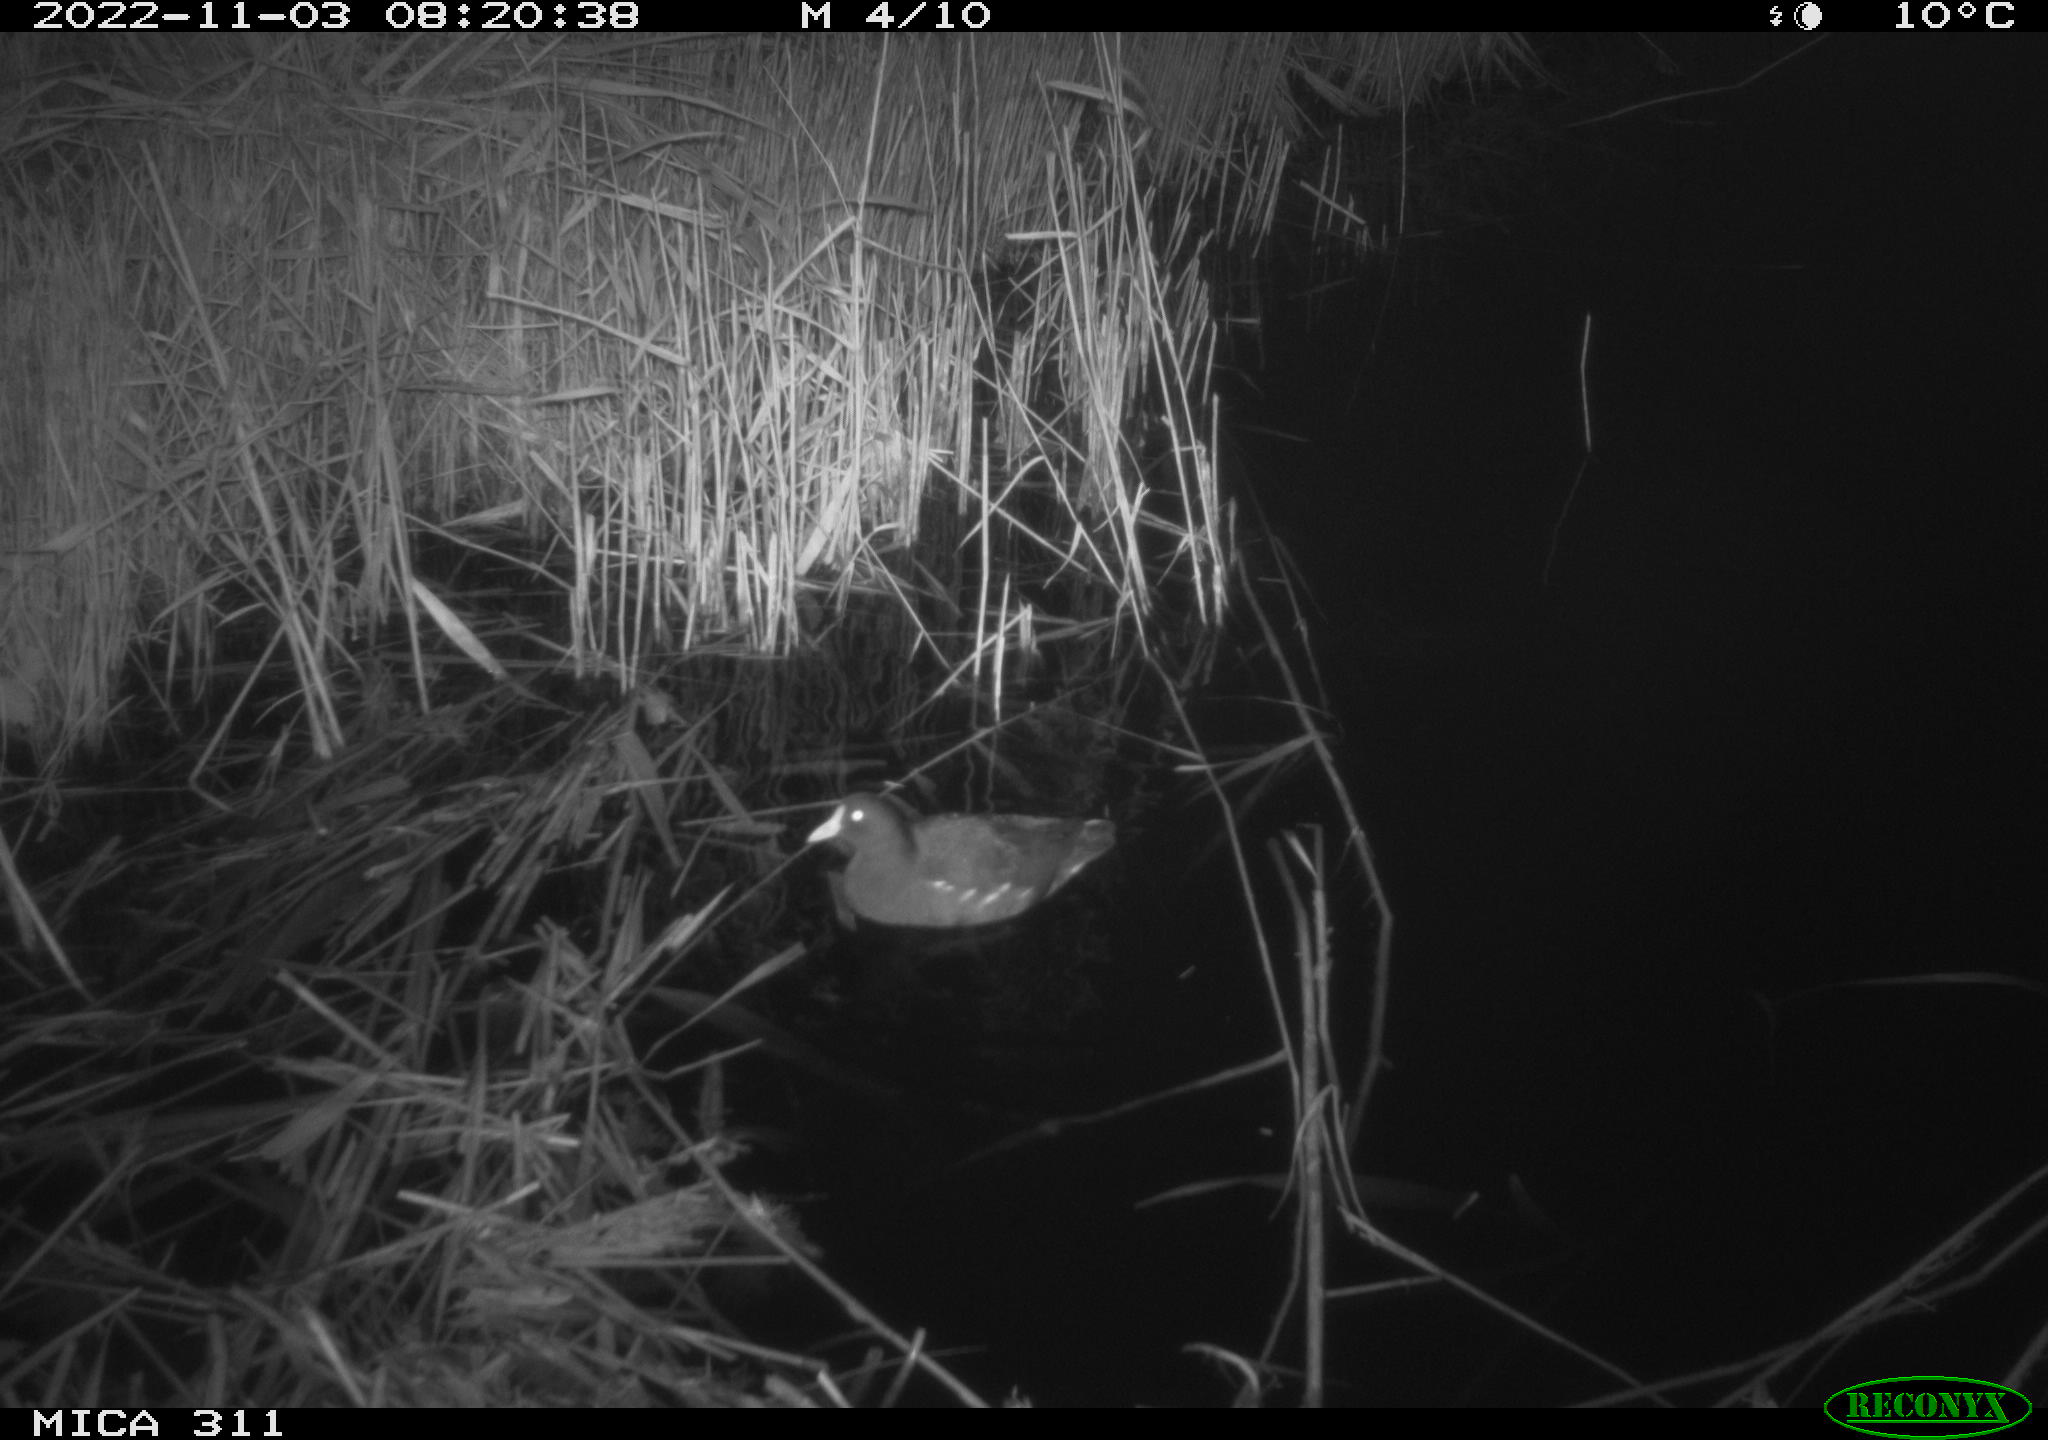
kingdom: Animalia
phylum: Chordata
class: Aves
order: Gruiformes
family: Rallidae
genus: Gallinula
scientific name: Gallinula chloropus
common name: Common moorhen
